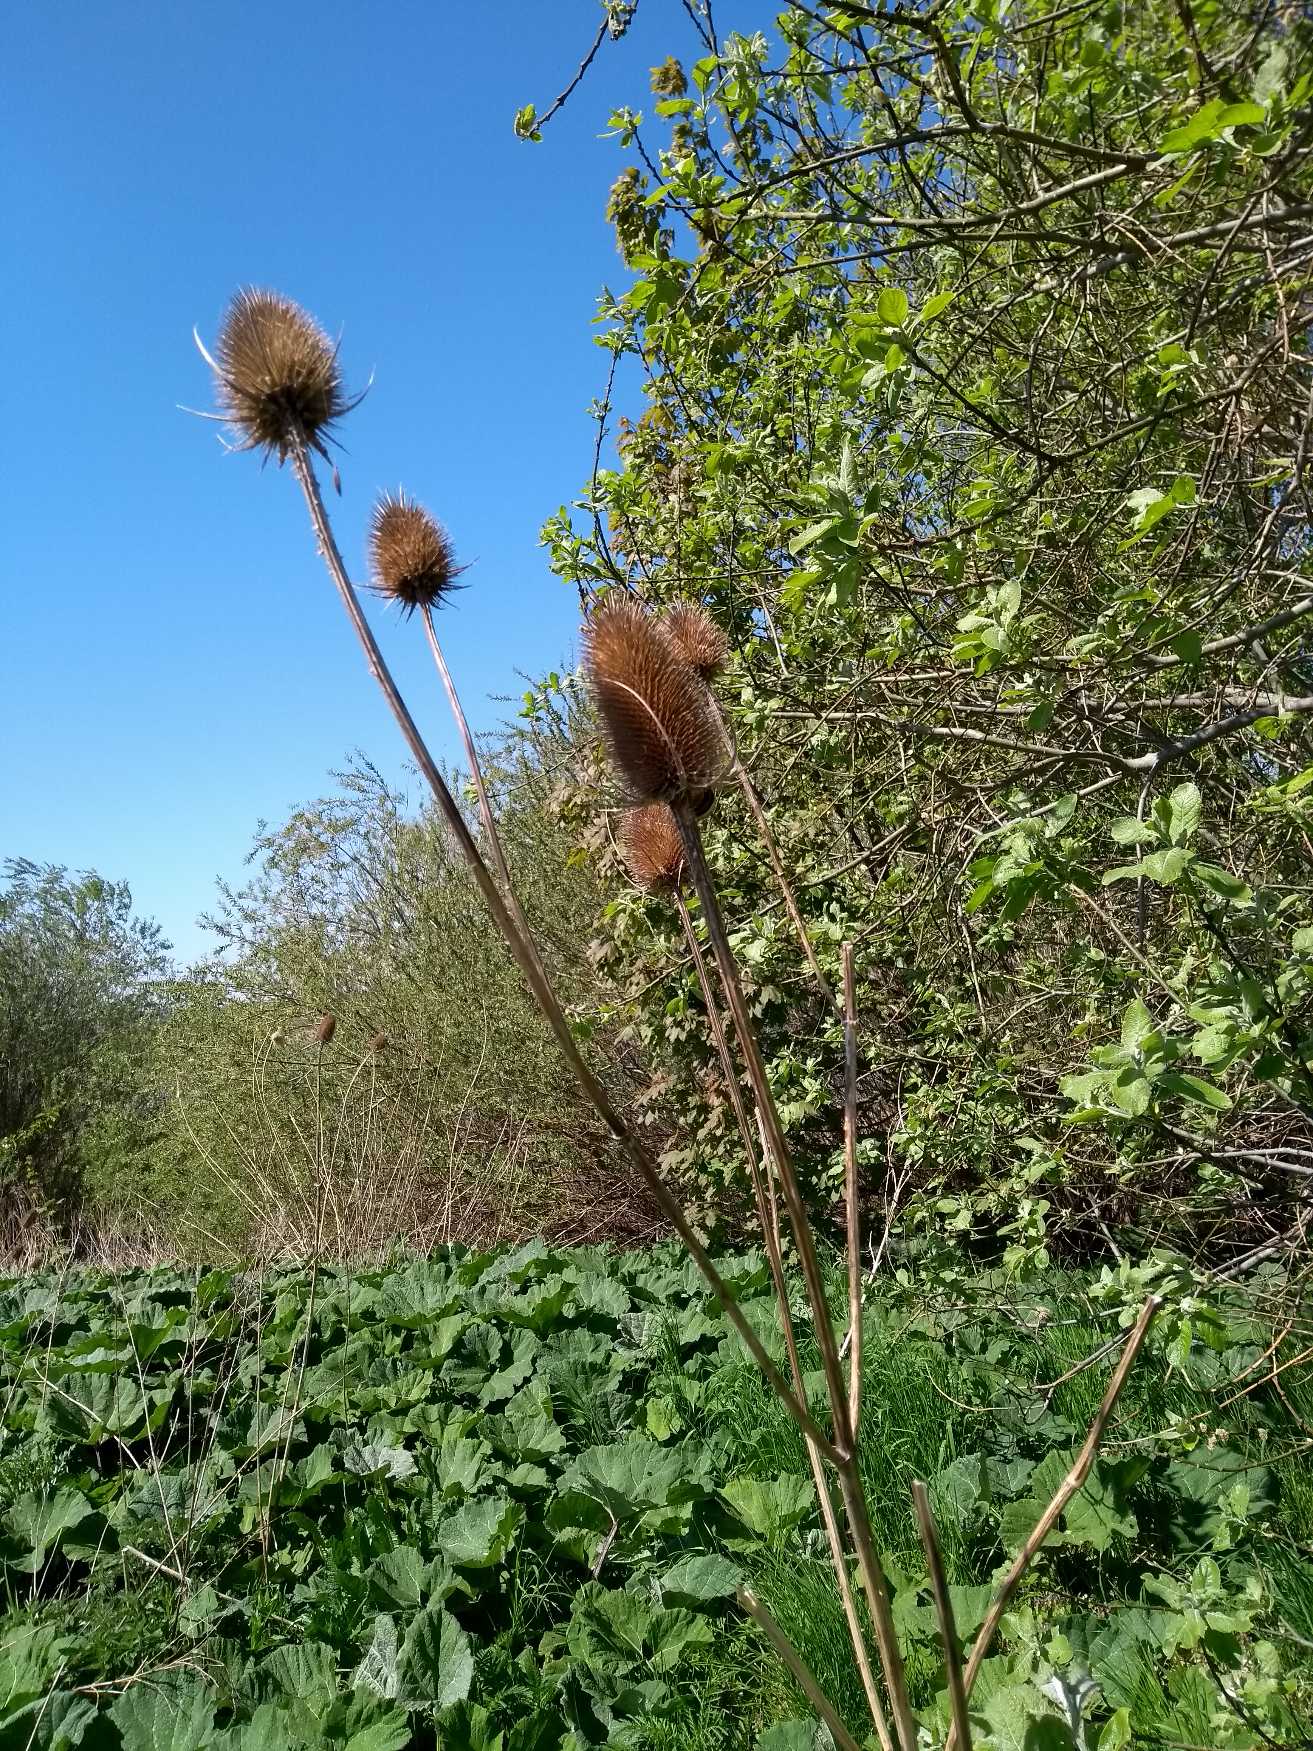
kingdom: Plantae
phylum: Tracheophyta
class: Magnoliopsida
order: Dipsacales
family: Caprifoliaceae
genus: Dipsacus
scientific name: Dipsacus fullonum
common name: Gærde-kartebolle
